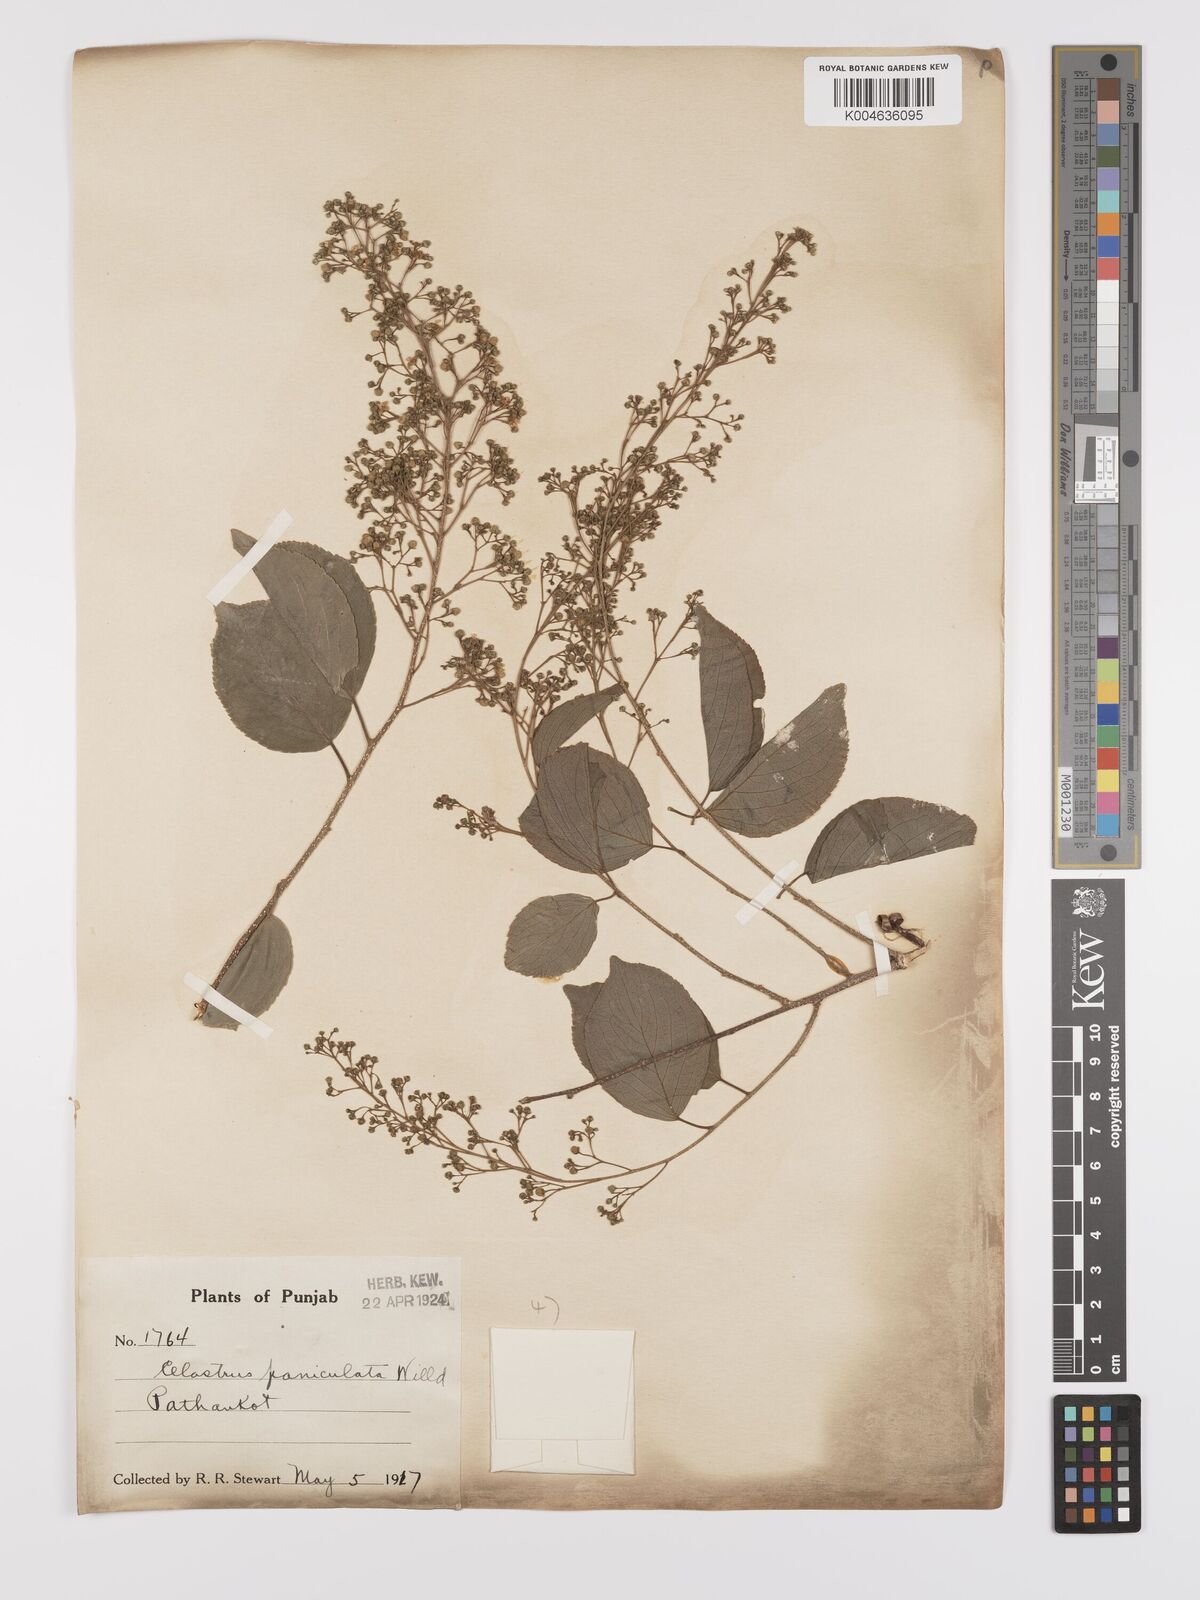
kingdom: Plantae
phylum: Tracheophyta
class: Magnoliopsida
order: Celastrales
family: Celastraceae
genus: Celastrus
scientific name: Celastrus paniculatus
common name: Oriental bittersweet; staff vine
